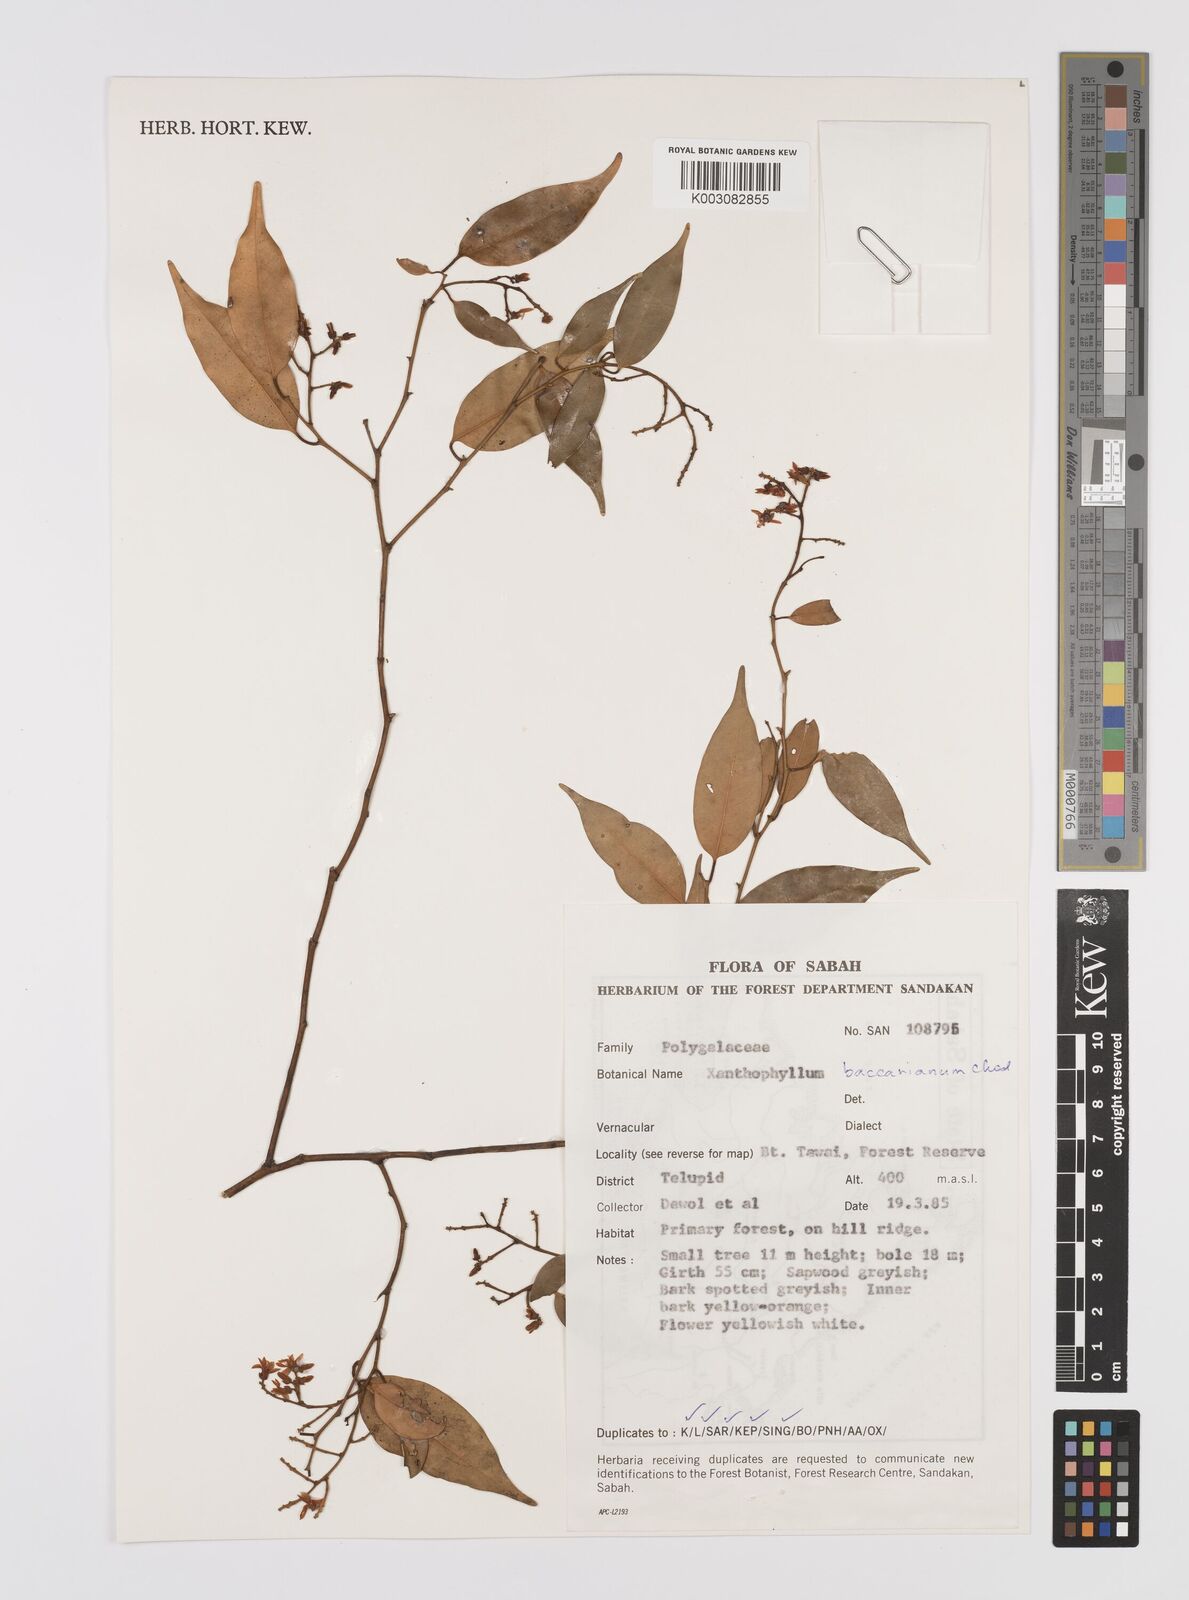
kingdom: Plantae
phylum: Tracheophyta
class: Magnoliopsida
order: Fabales
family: Polygalaceae
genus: Xanthophyllum
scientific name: Xanthophyllum beccarianum
